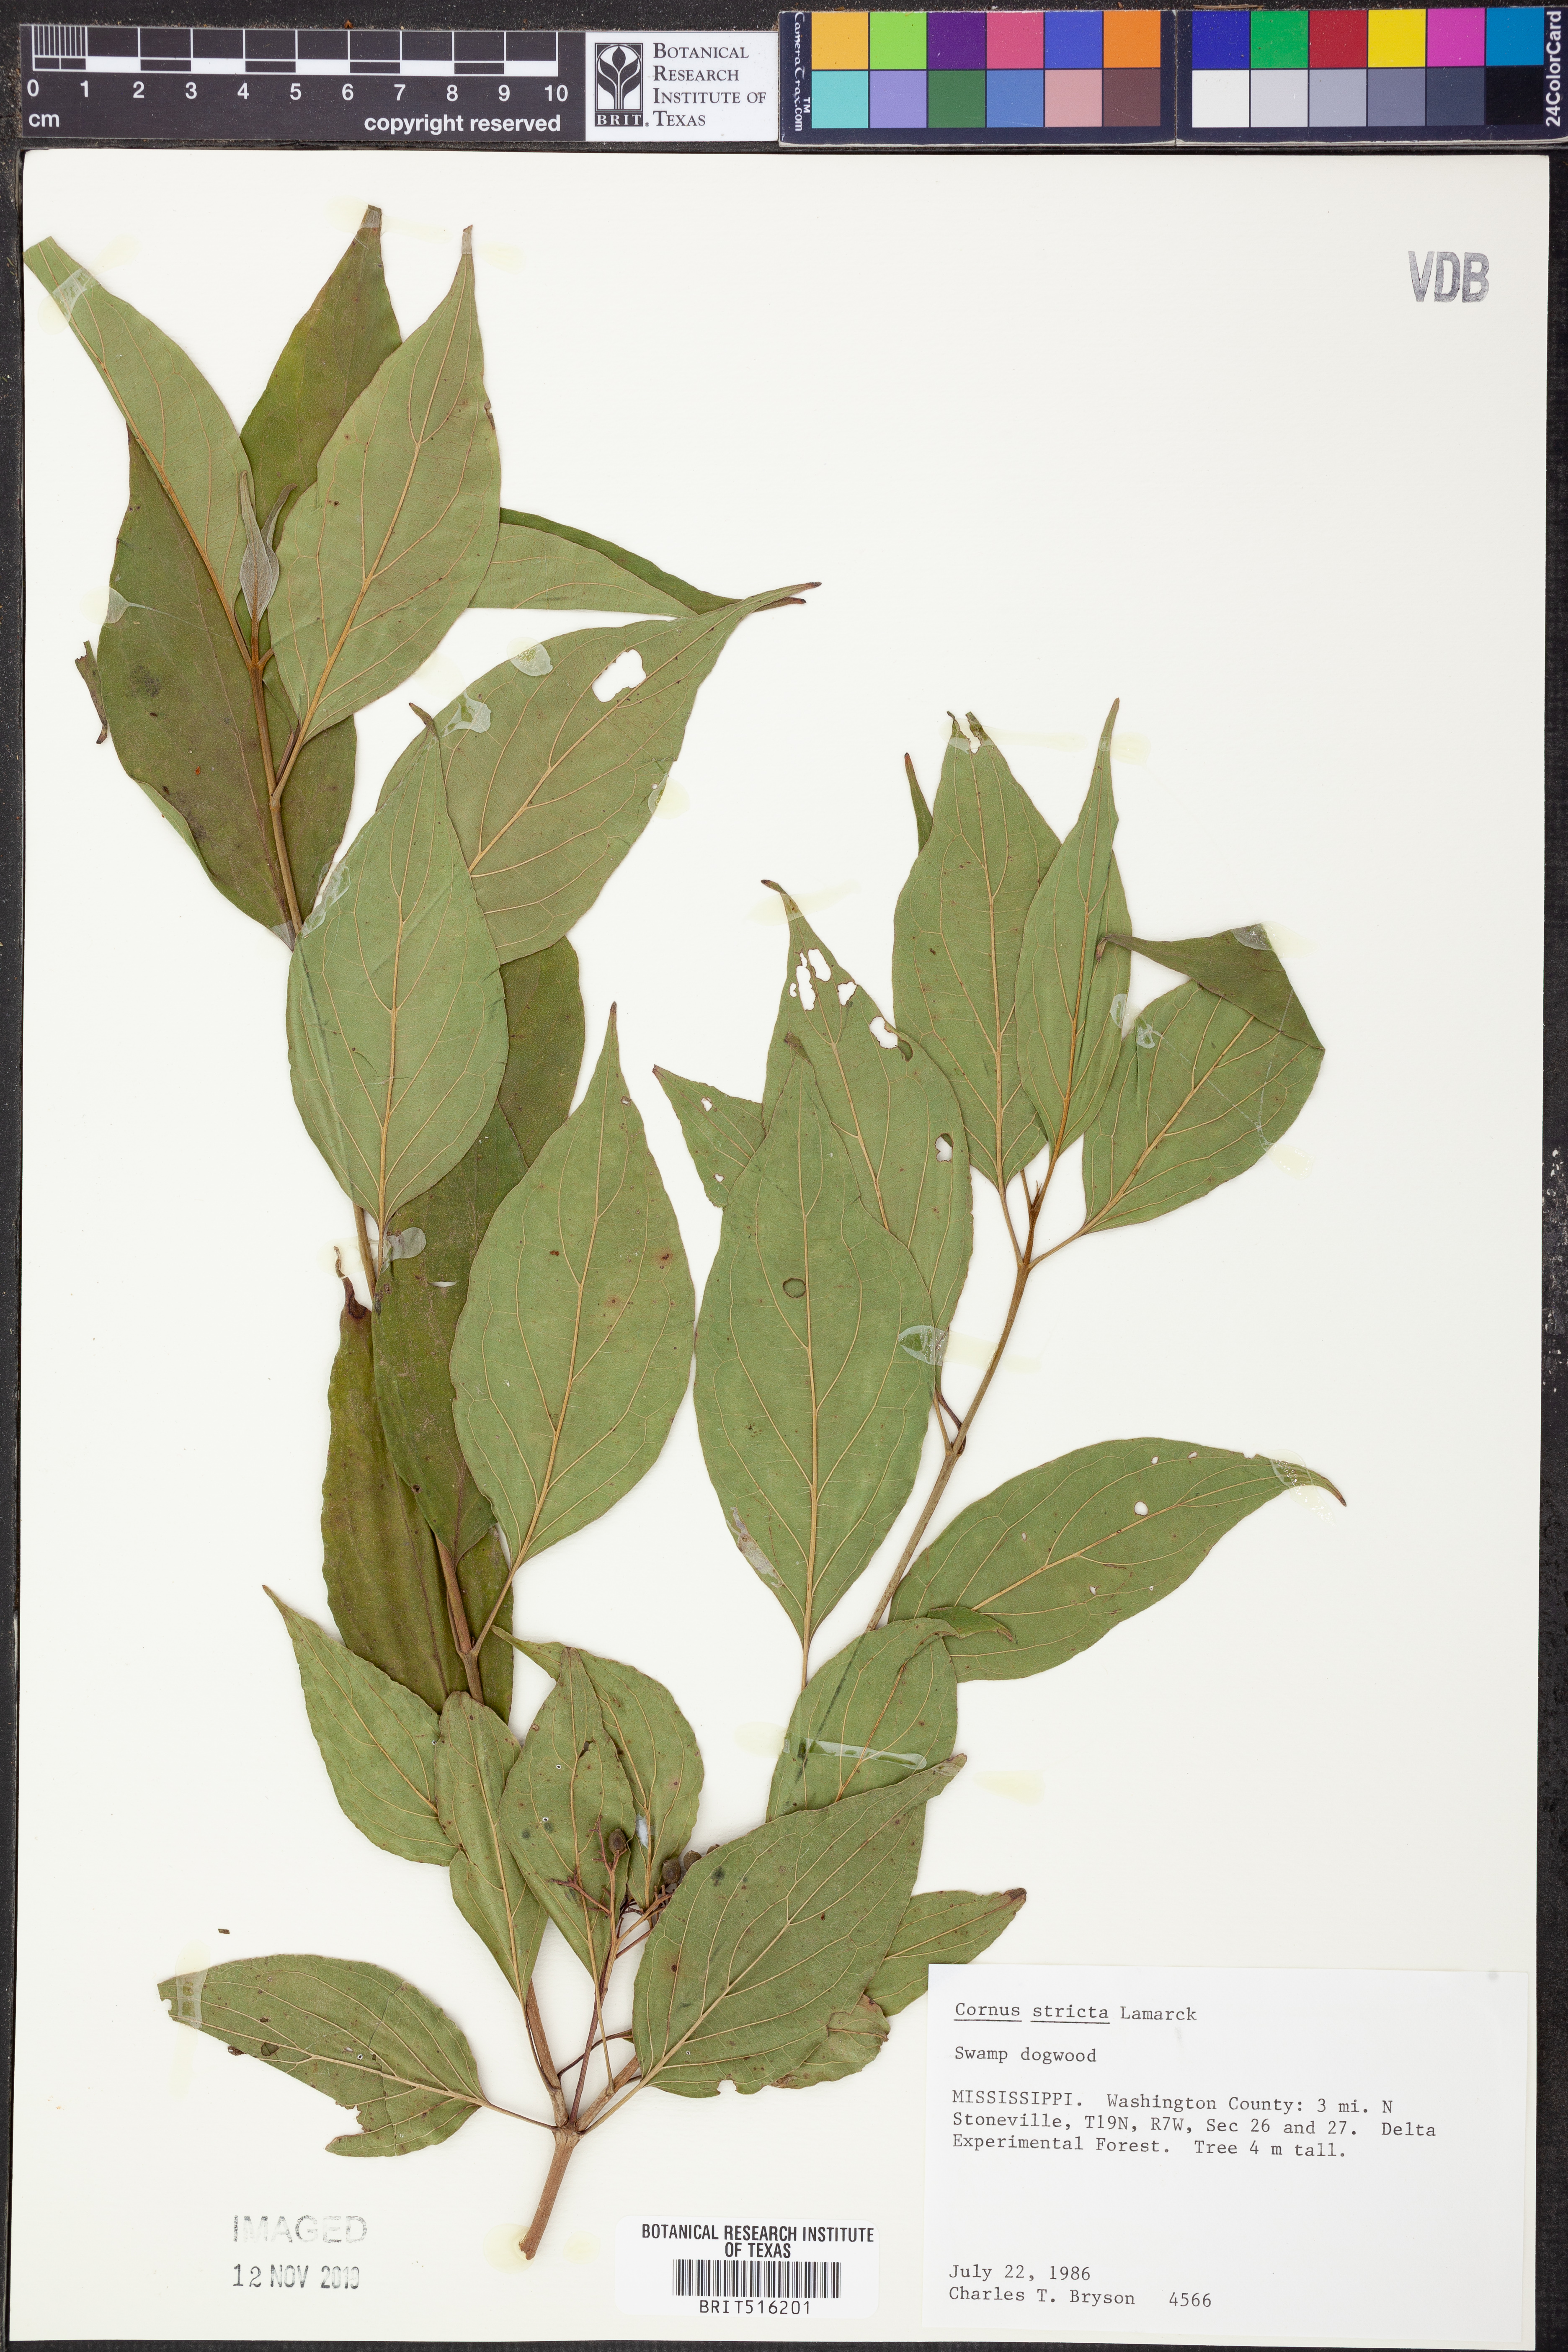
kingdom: Plantae
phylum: Tracheophyta
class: Magnoliopsida
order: Cornales
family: Cornaceae
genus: Cornus
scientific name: Cornus foemina
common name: Swamp dogwood
